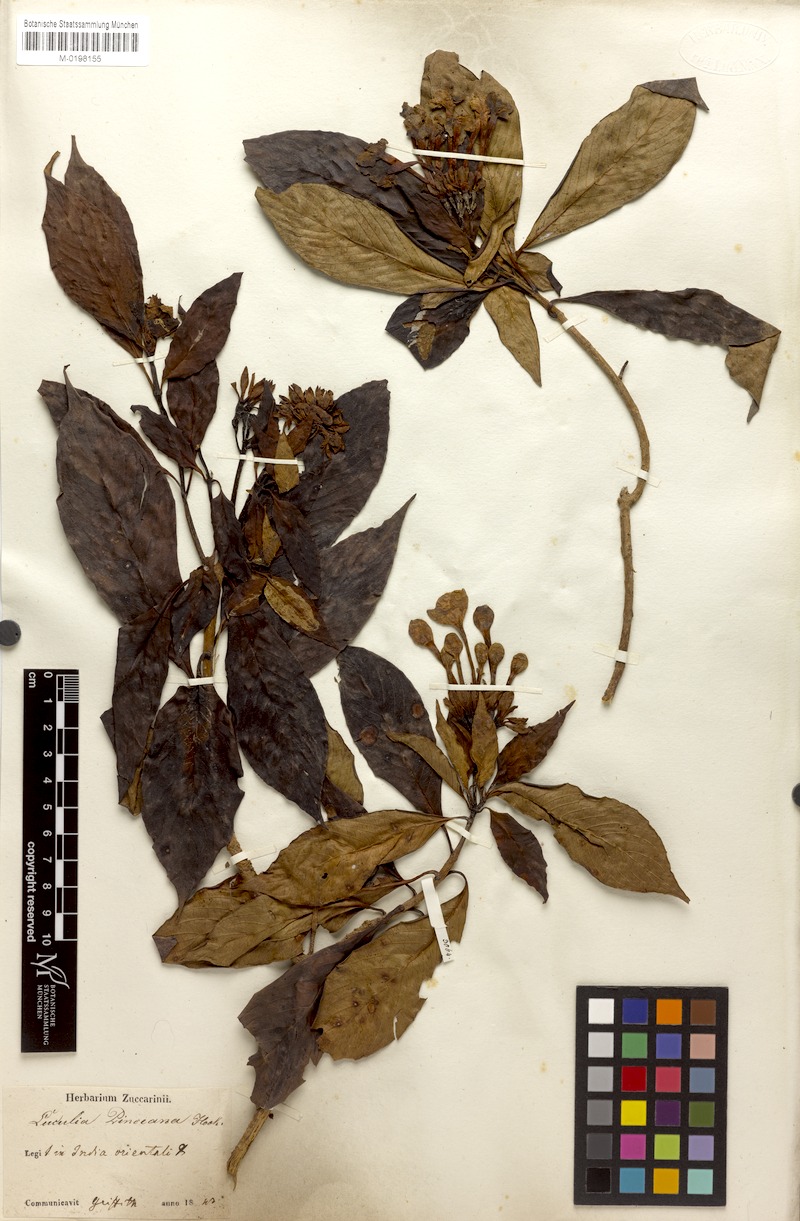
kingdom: Plantae
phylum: Tracheophyta
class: Magnoliopsida
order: Gentianales
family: Rubiaceae
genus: Luculia
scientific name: Luculia pinceana
